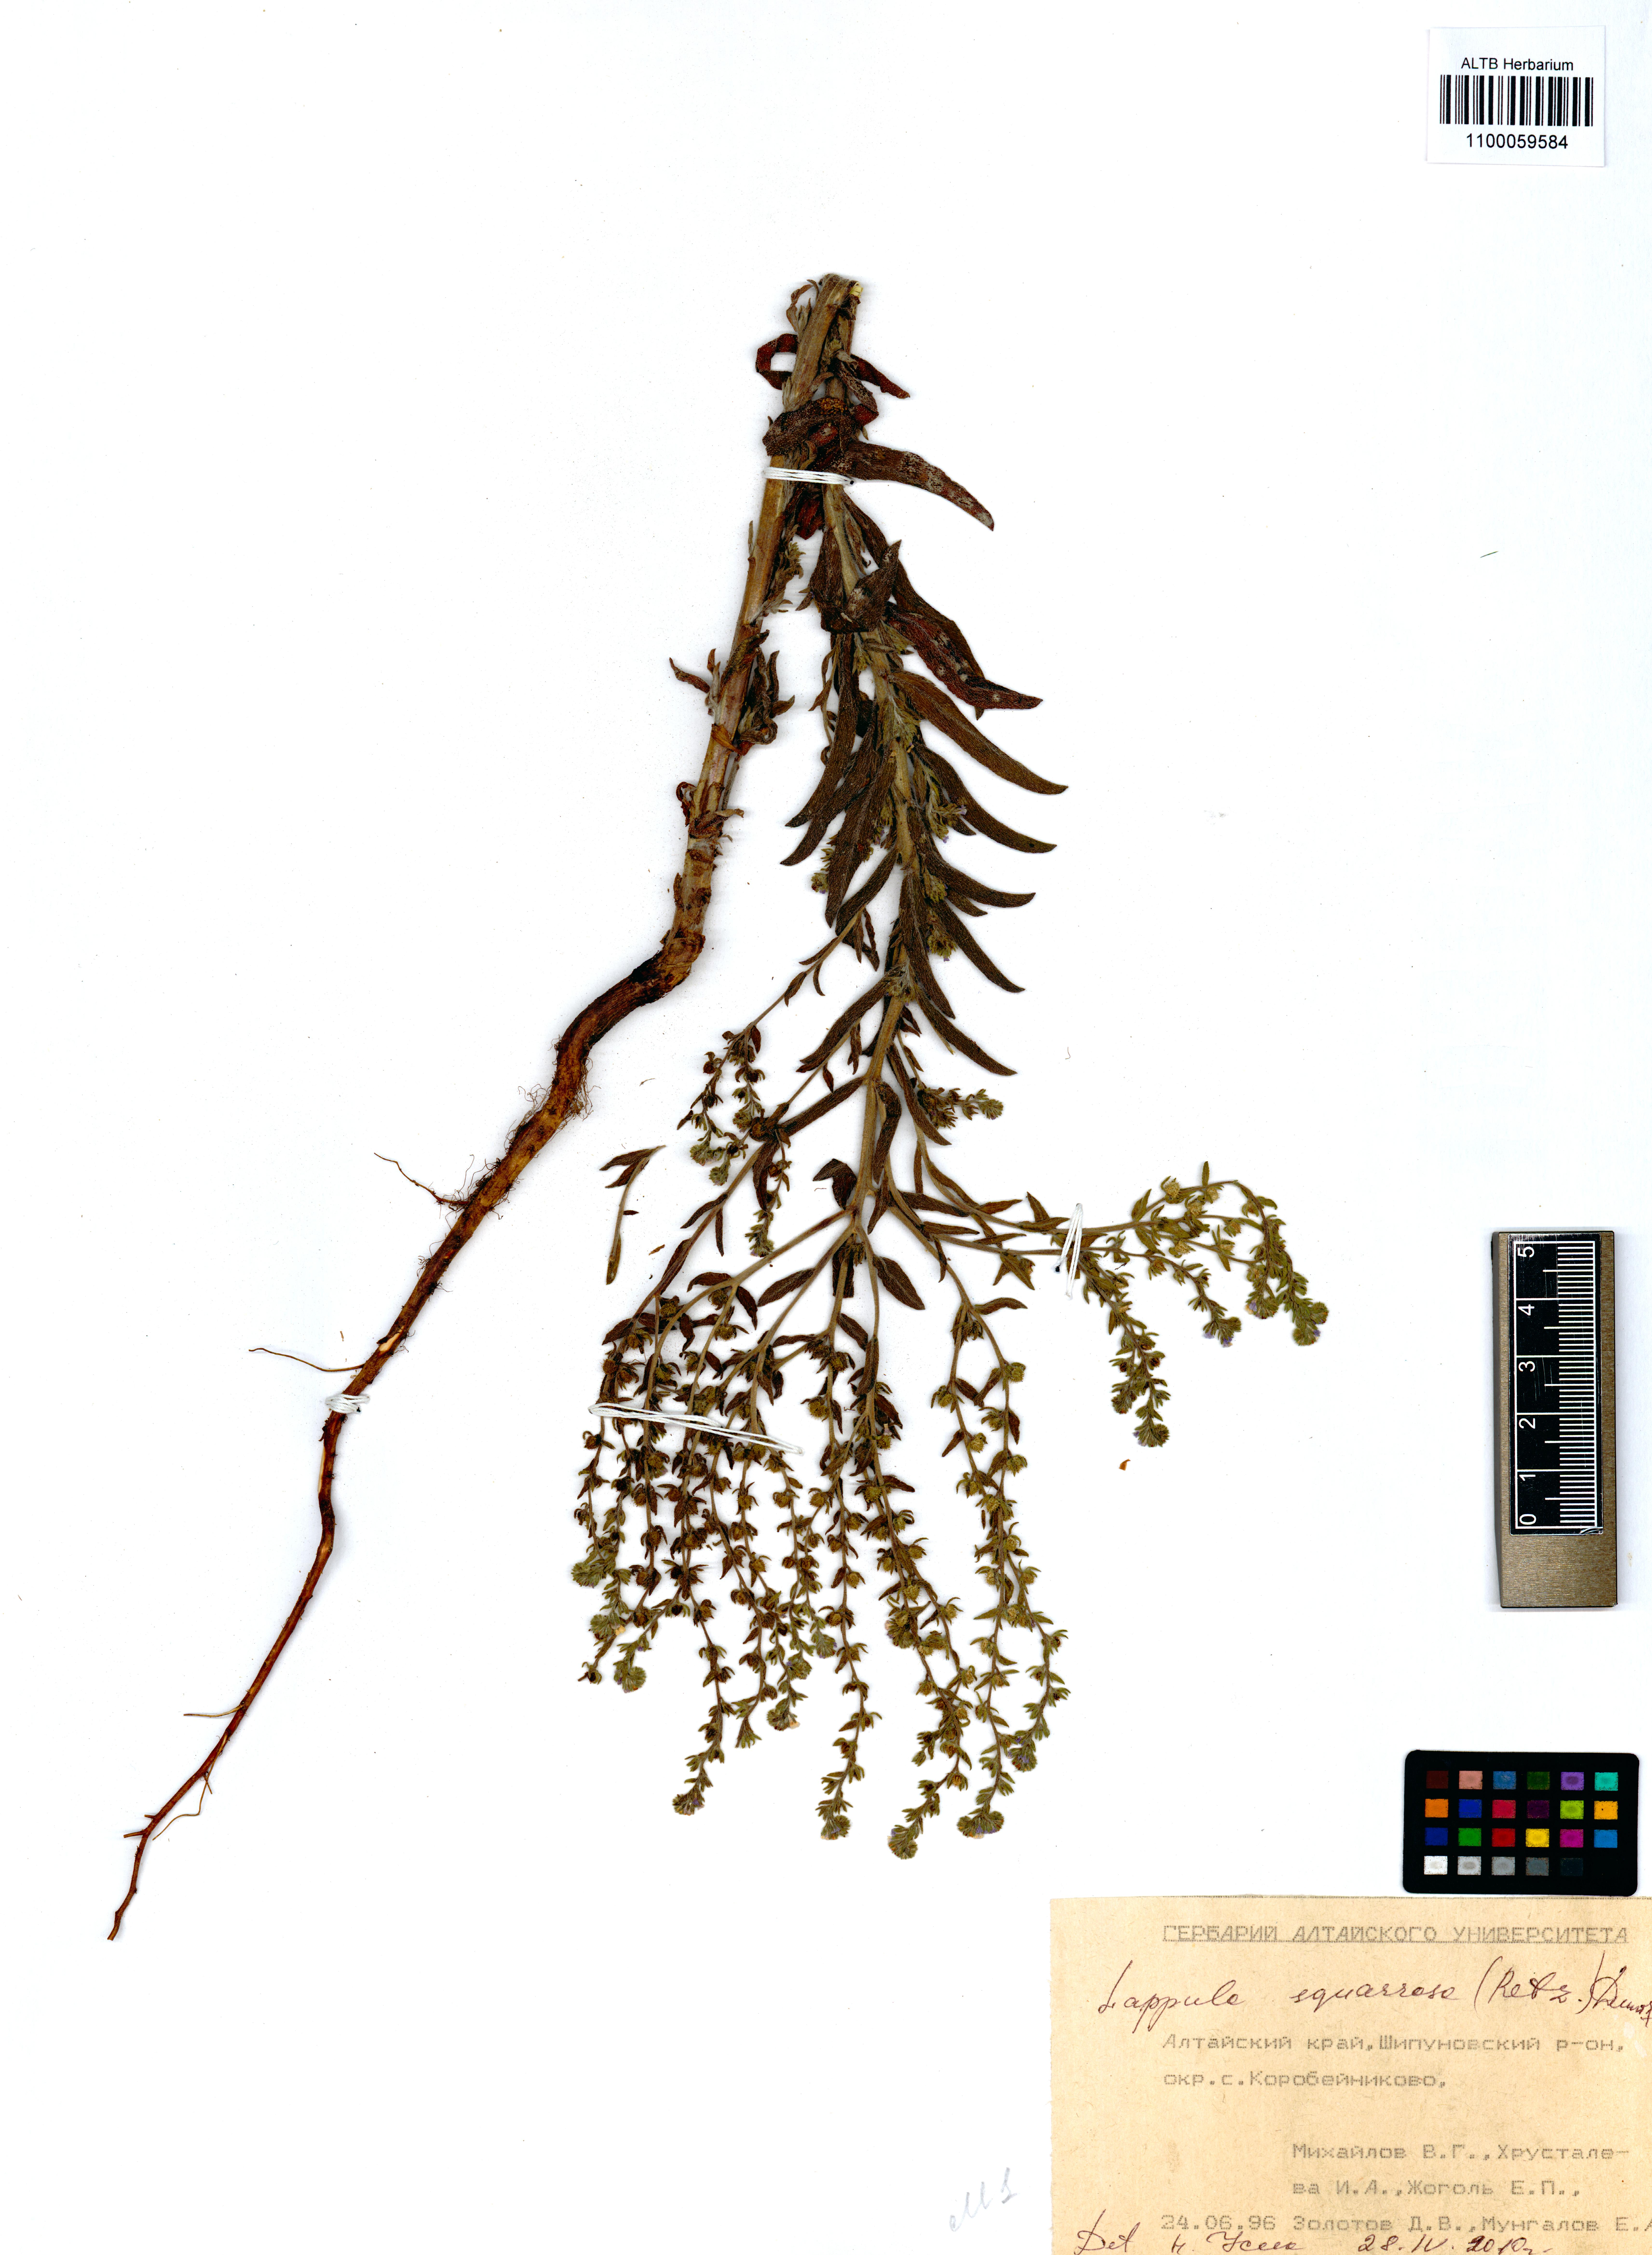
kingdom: Plantae
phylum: Tracheophyta
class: Magnoliopsida
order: Boraginales
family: Boraginaceae
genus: Lappula
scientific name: Lappula squarrosa
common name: European stickseed
